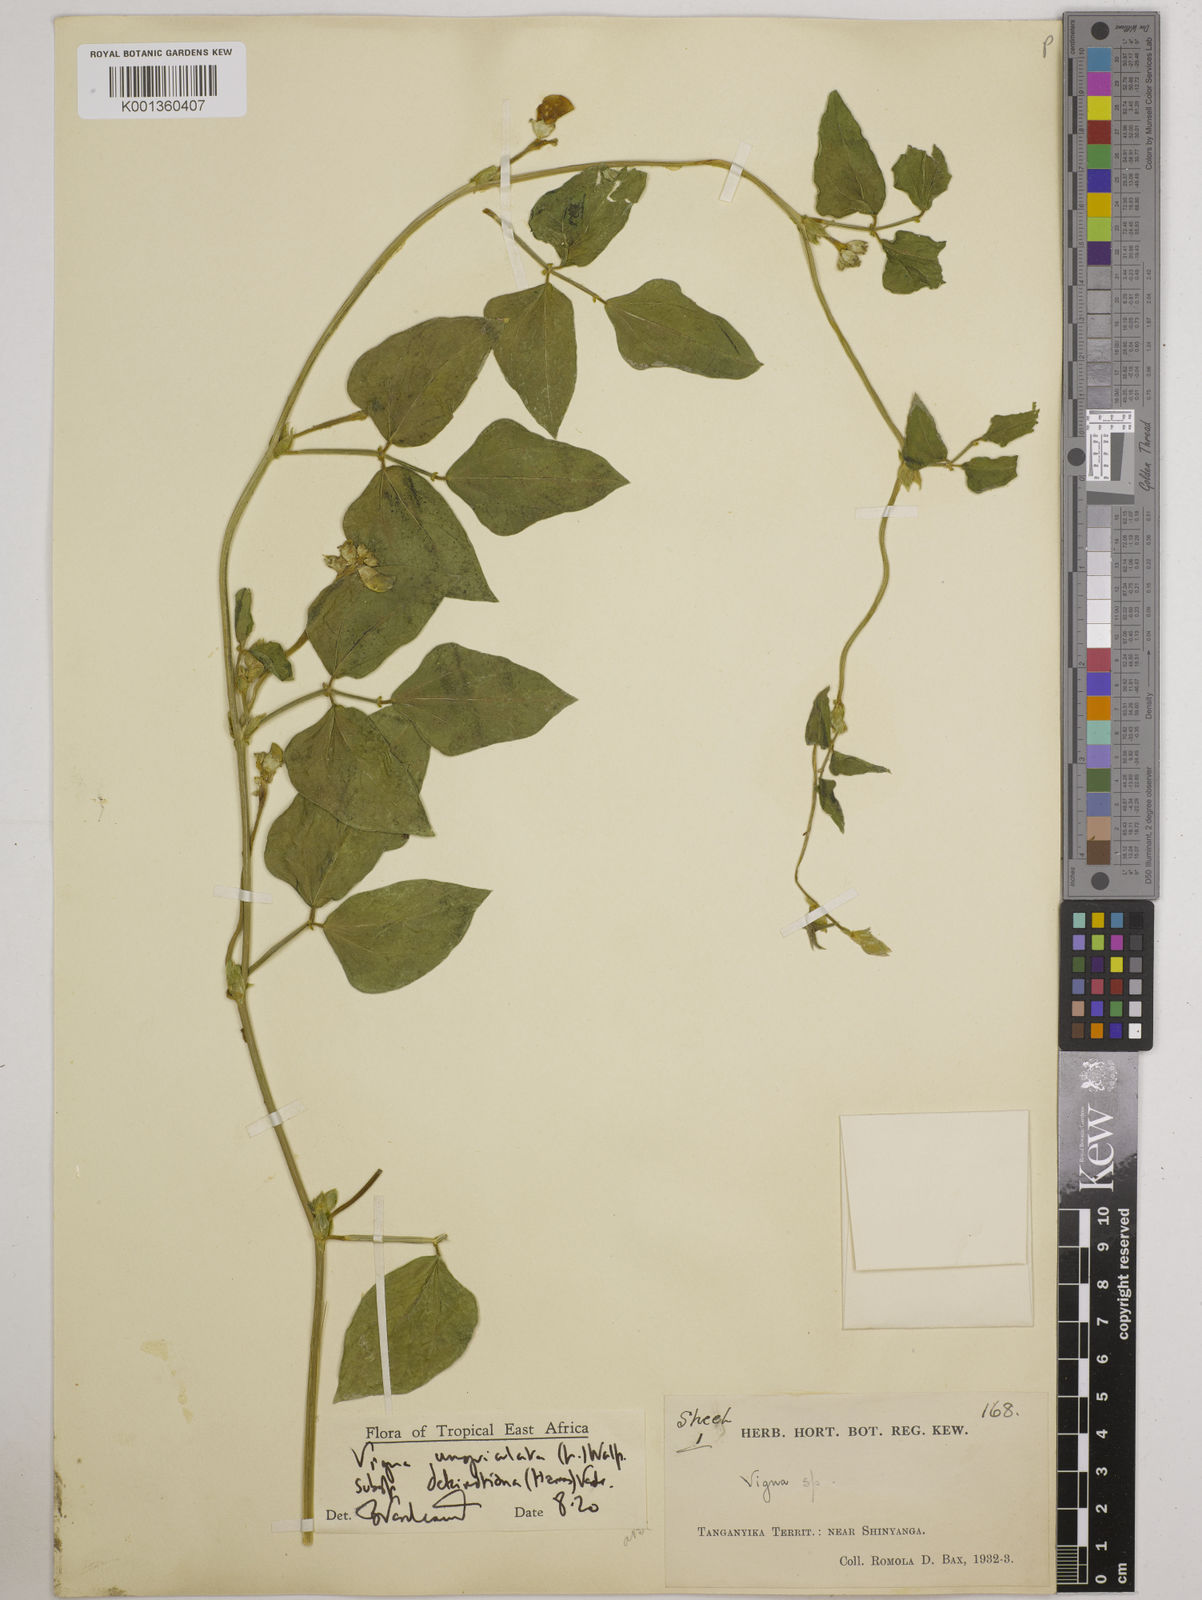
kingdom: Plantae
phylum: Tracheophyta
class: Magnoliopsida
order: Fabales
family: Fabaceae
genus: Vigna
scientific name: Vigna
